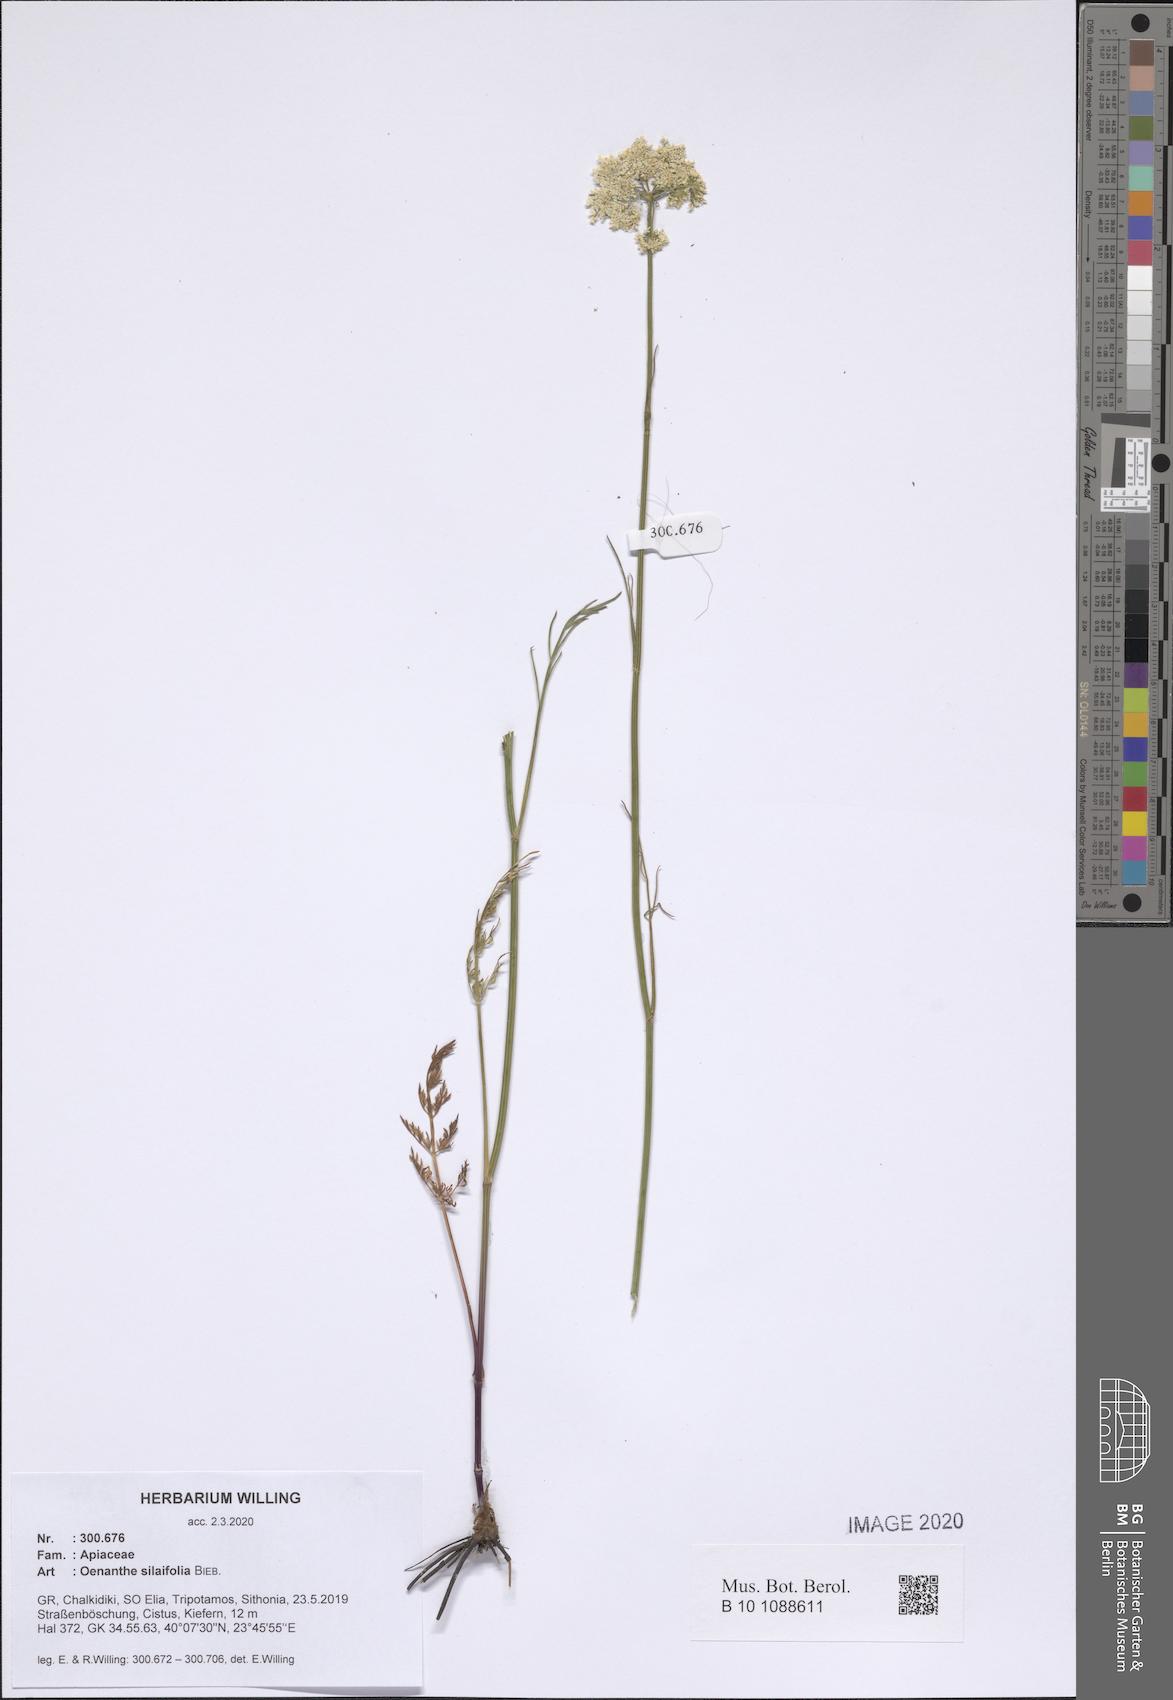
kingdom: Plantae
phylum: Tracheophyta
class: Magnoliopsida
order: Apiales
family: Apiaceae
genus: Oenanthe
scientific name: Oenanthe silaifolia
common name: Narrow-leaved water-dropwort
